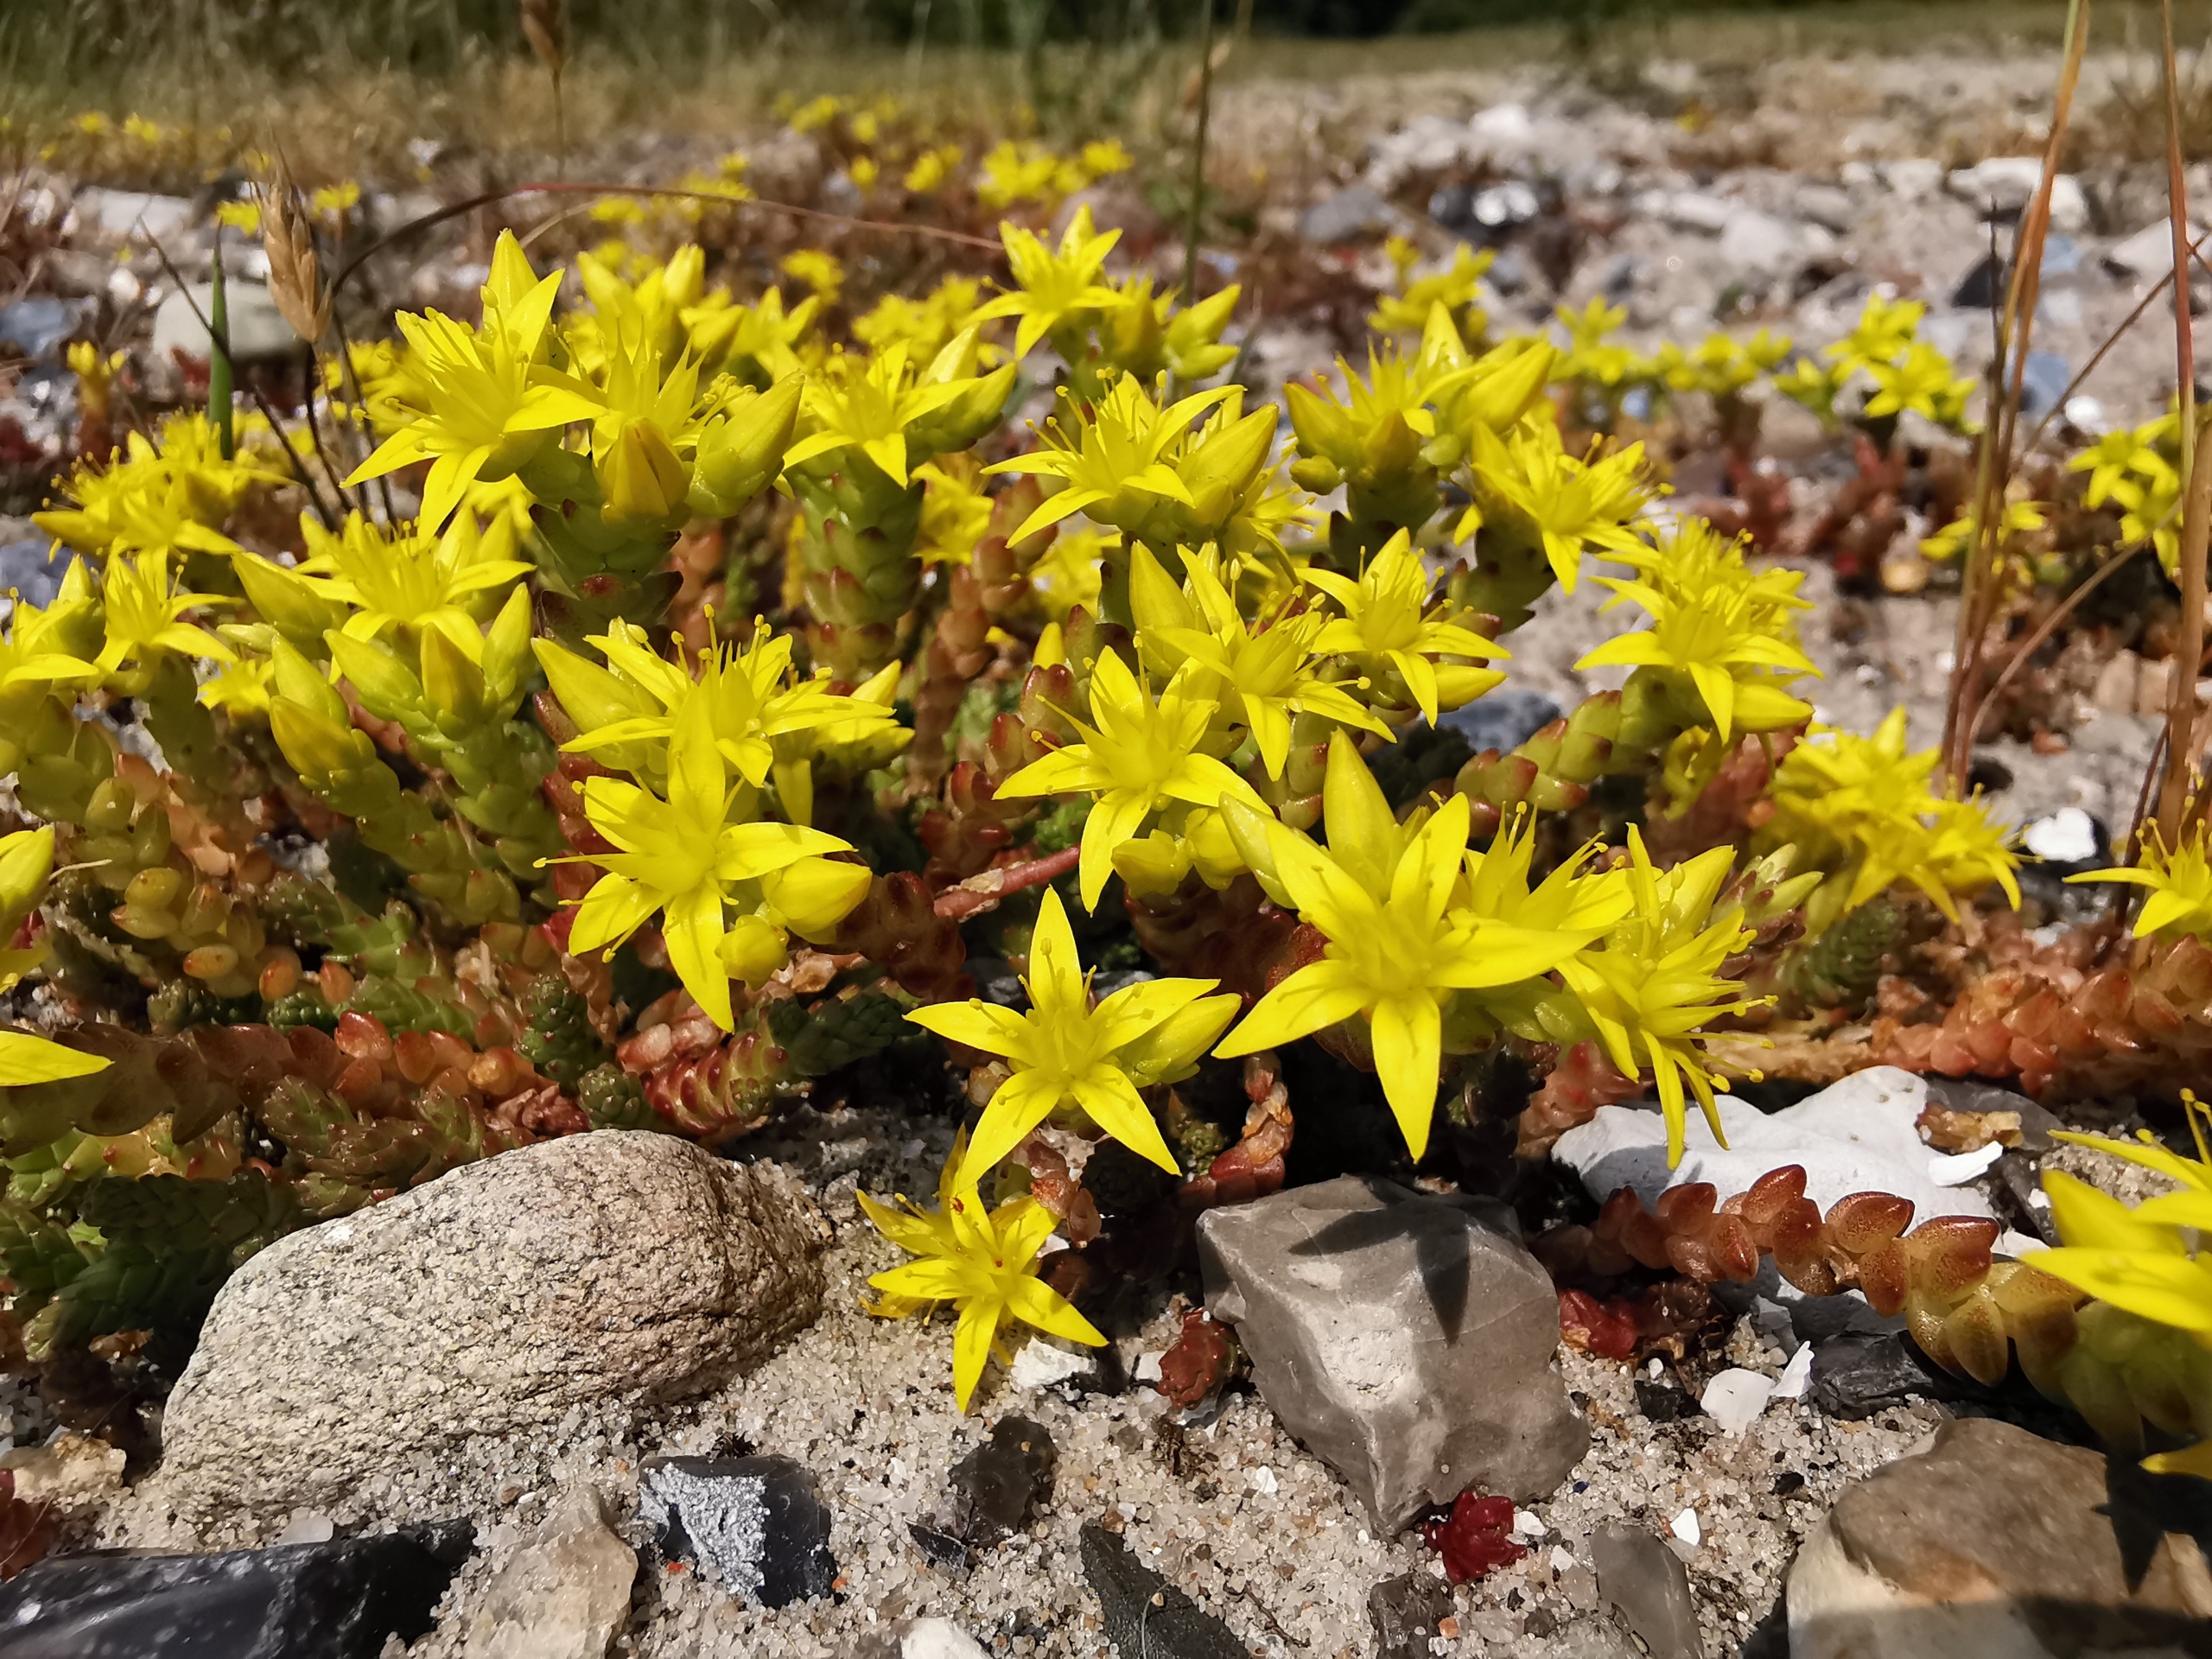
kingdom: Plantae
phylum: Tracheophyta
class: Magnoliopsida
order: Saxifragales
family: Crassulaceae
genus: Sedum
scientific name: Sedum acre
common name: Bidende stenurt
